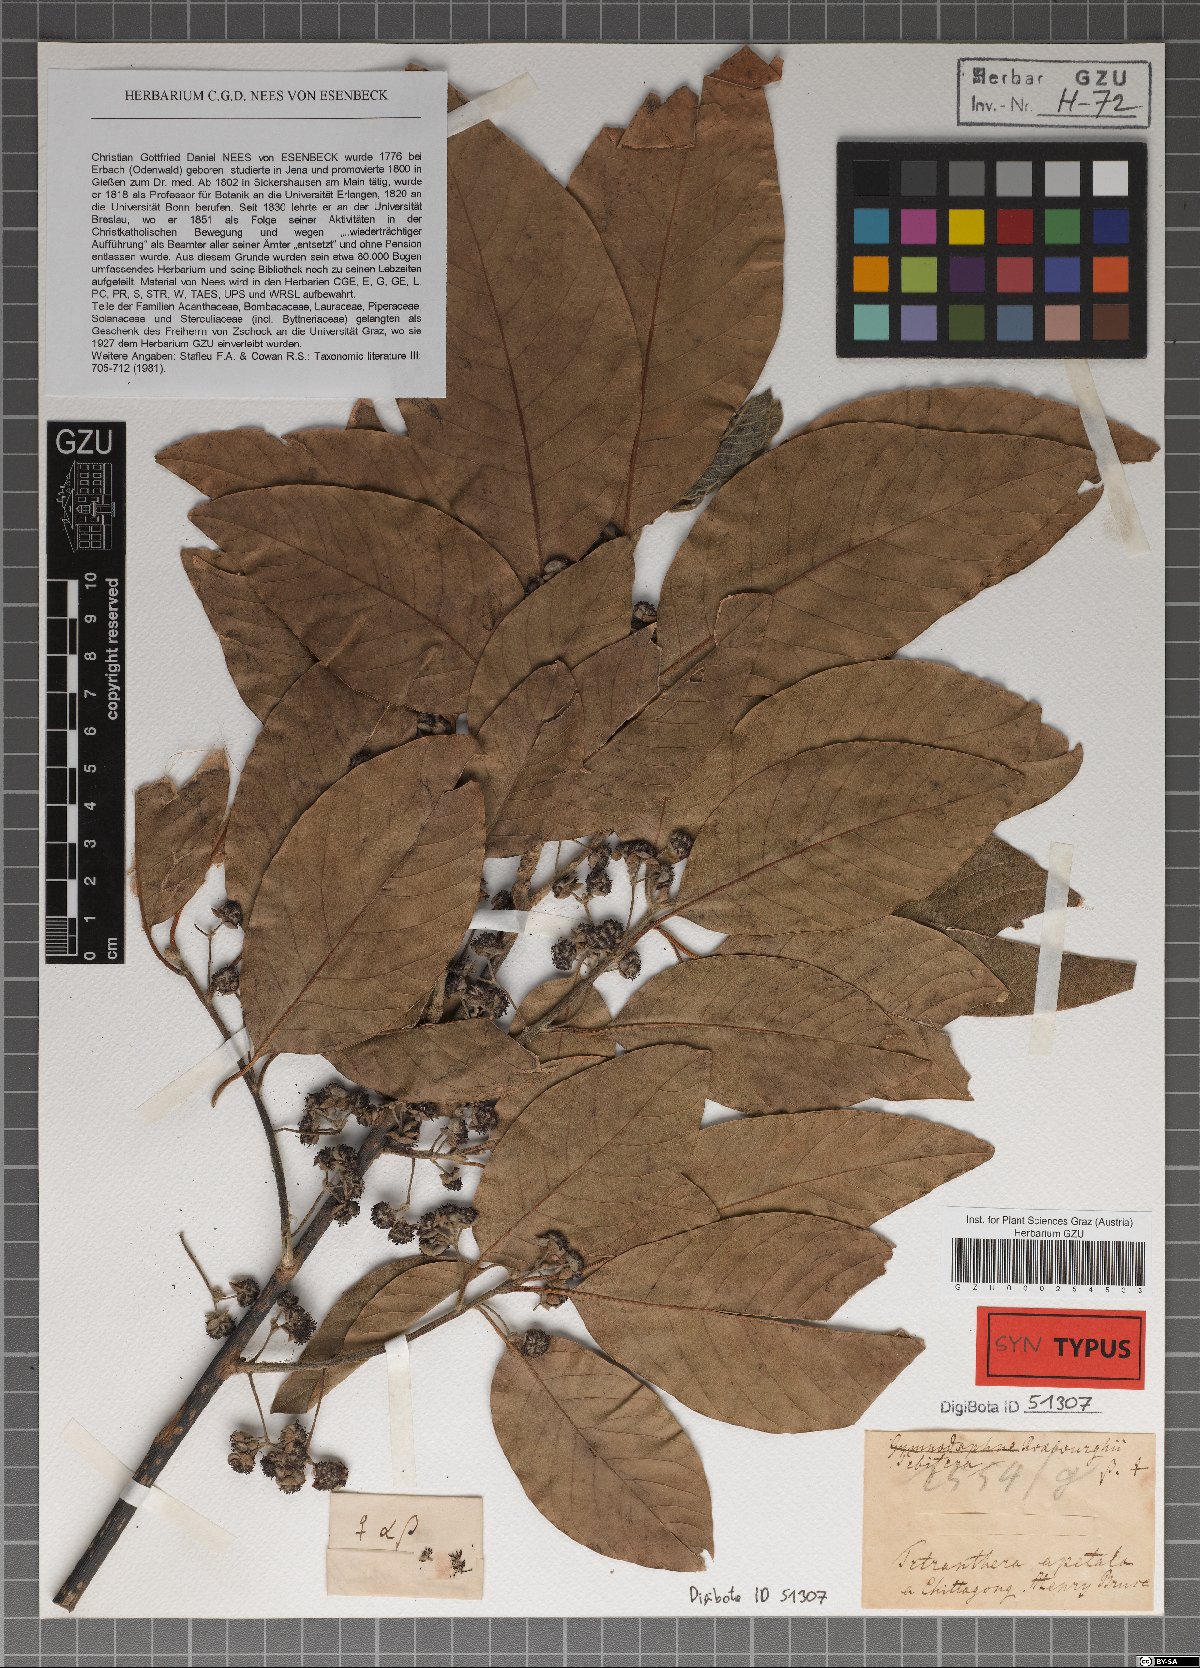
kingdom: Plantae
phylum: Tracheophyta
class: Magnoliopsida
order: Laurales
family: Lauraceae
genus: Litsea
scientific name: Litsea glutinosa
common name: Indian-laurel
